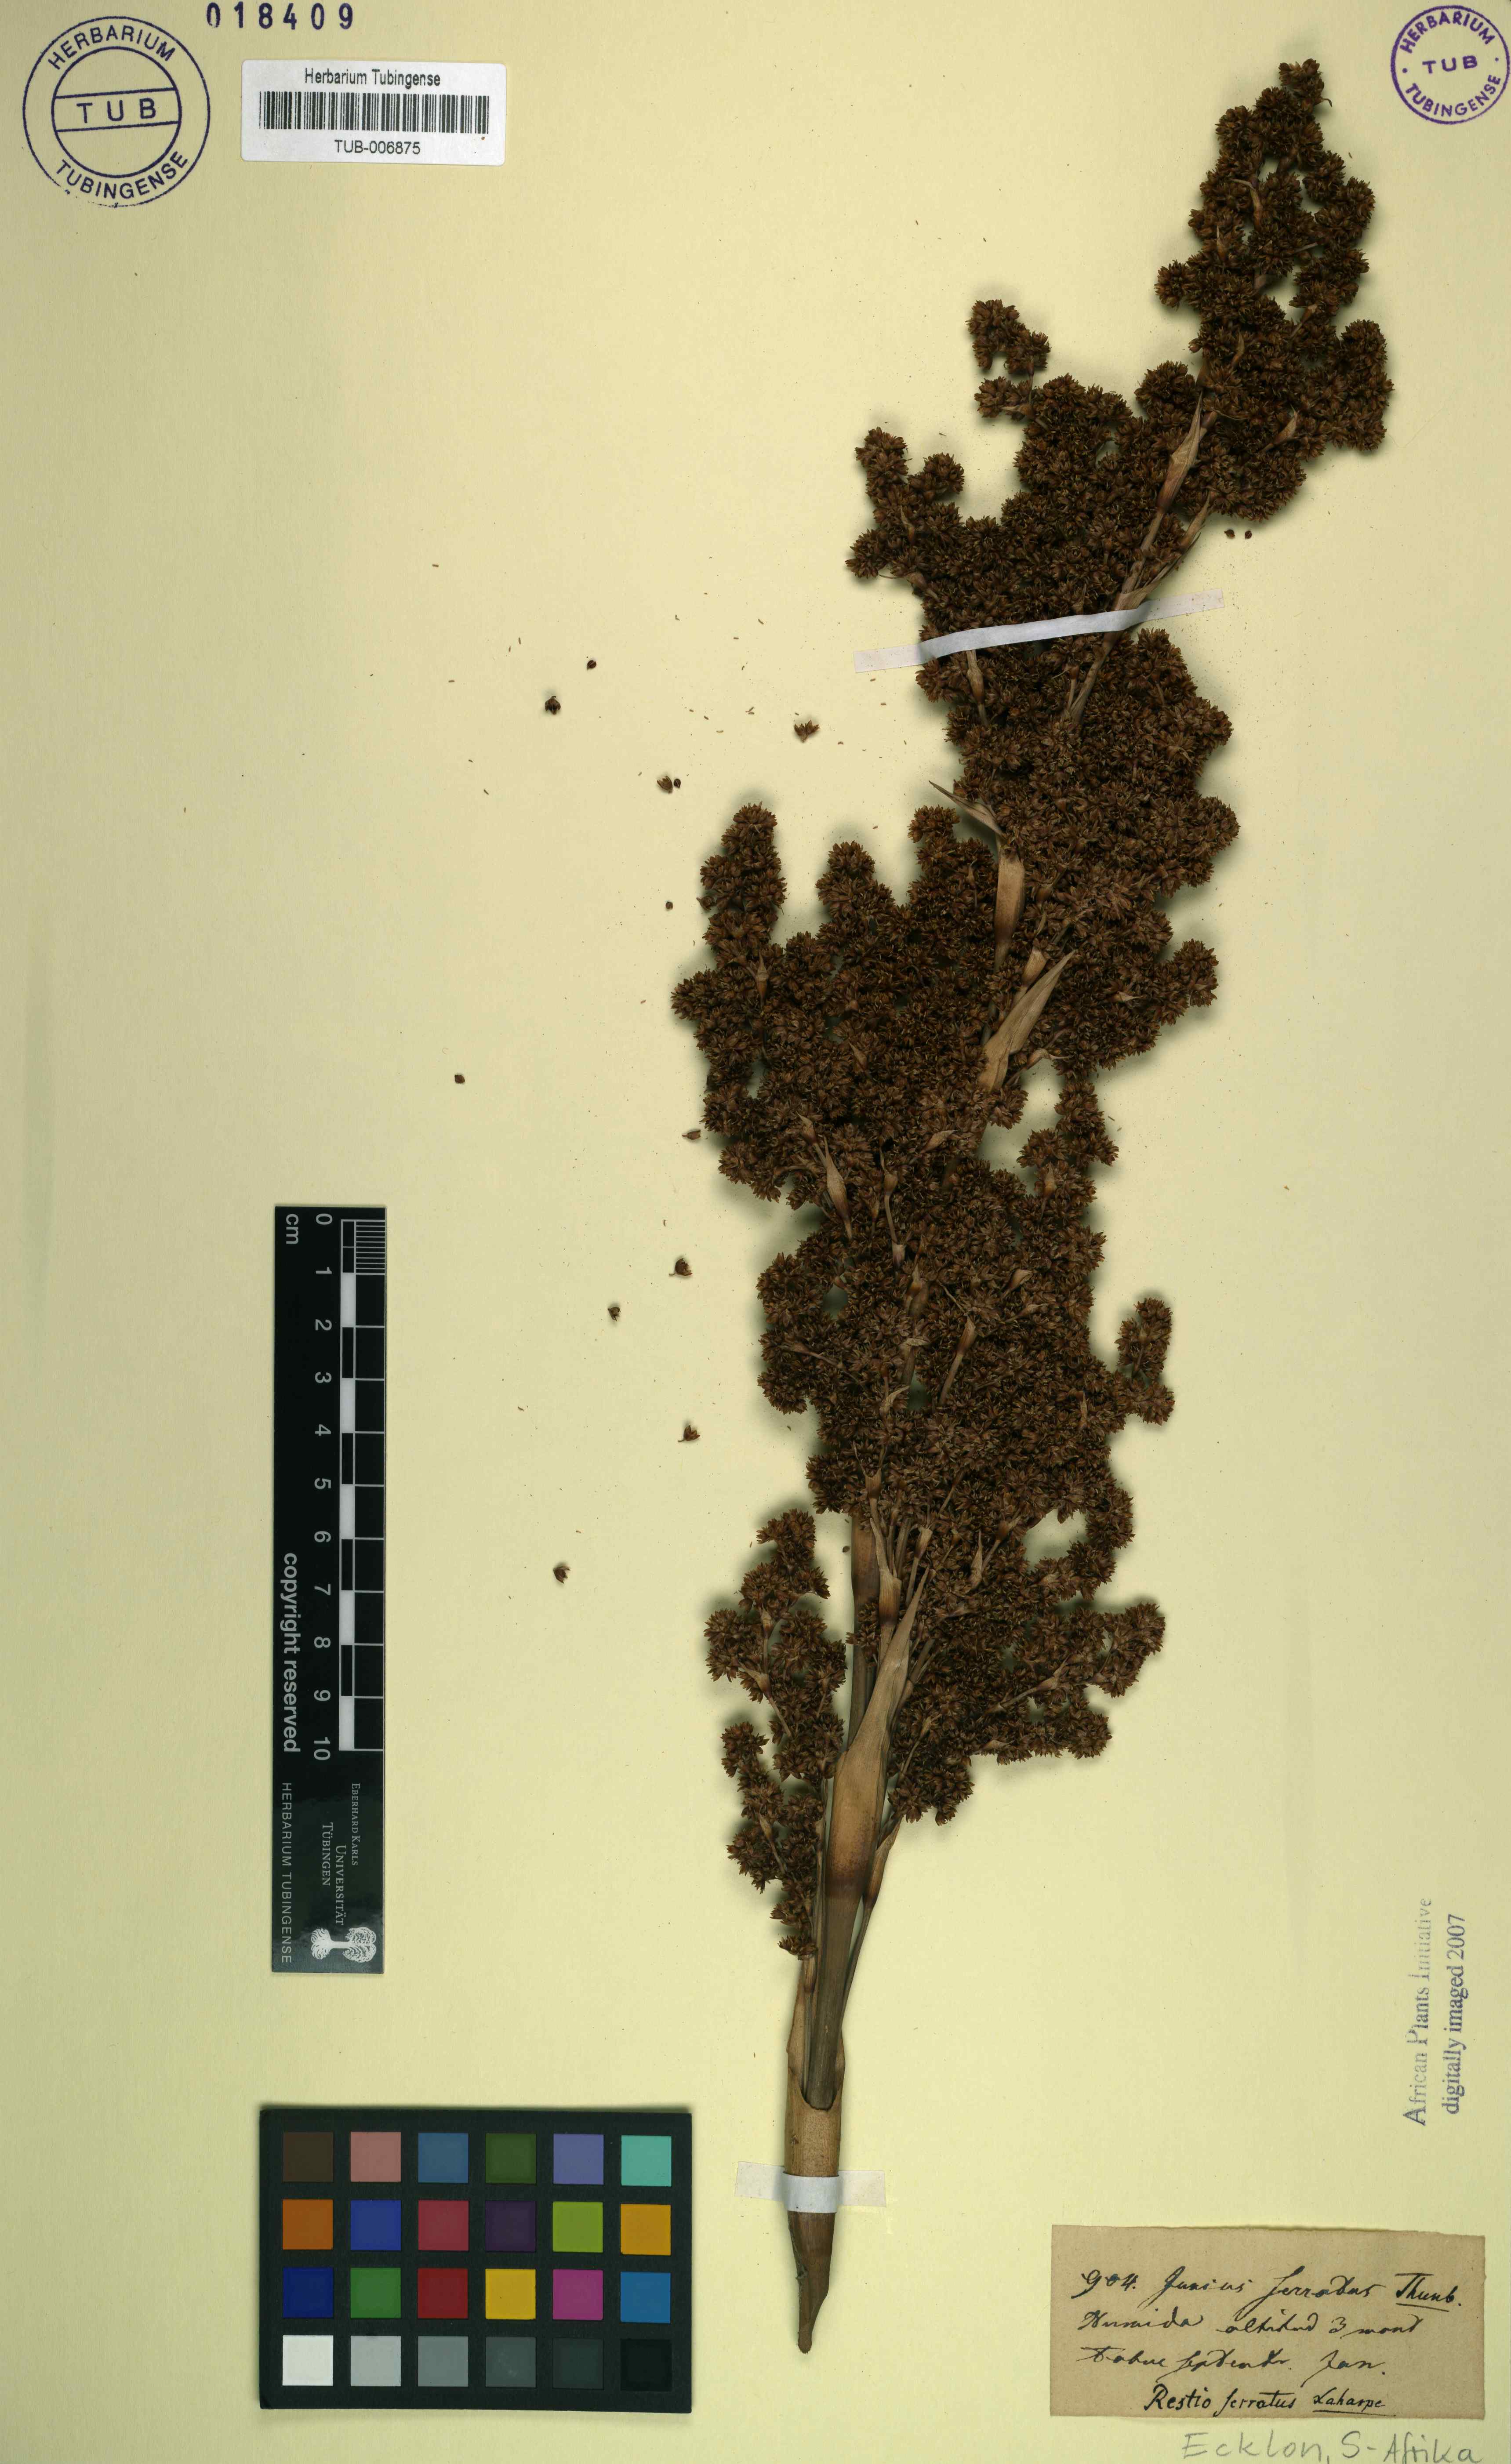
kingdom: Plantae
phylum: Tracheophyta
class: Liliopsida
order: Poales
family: Thurniaceae
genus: Prionium
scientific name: Prionium serratum
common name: Palmiet
